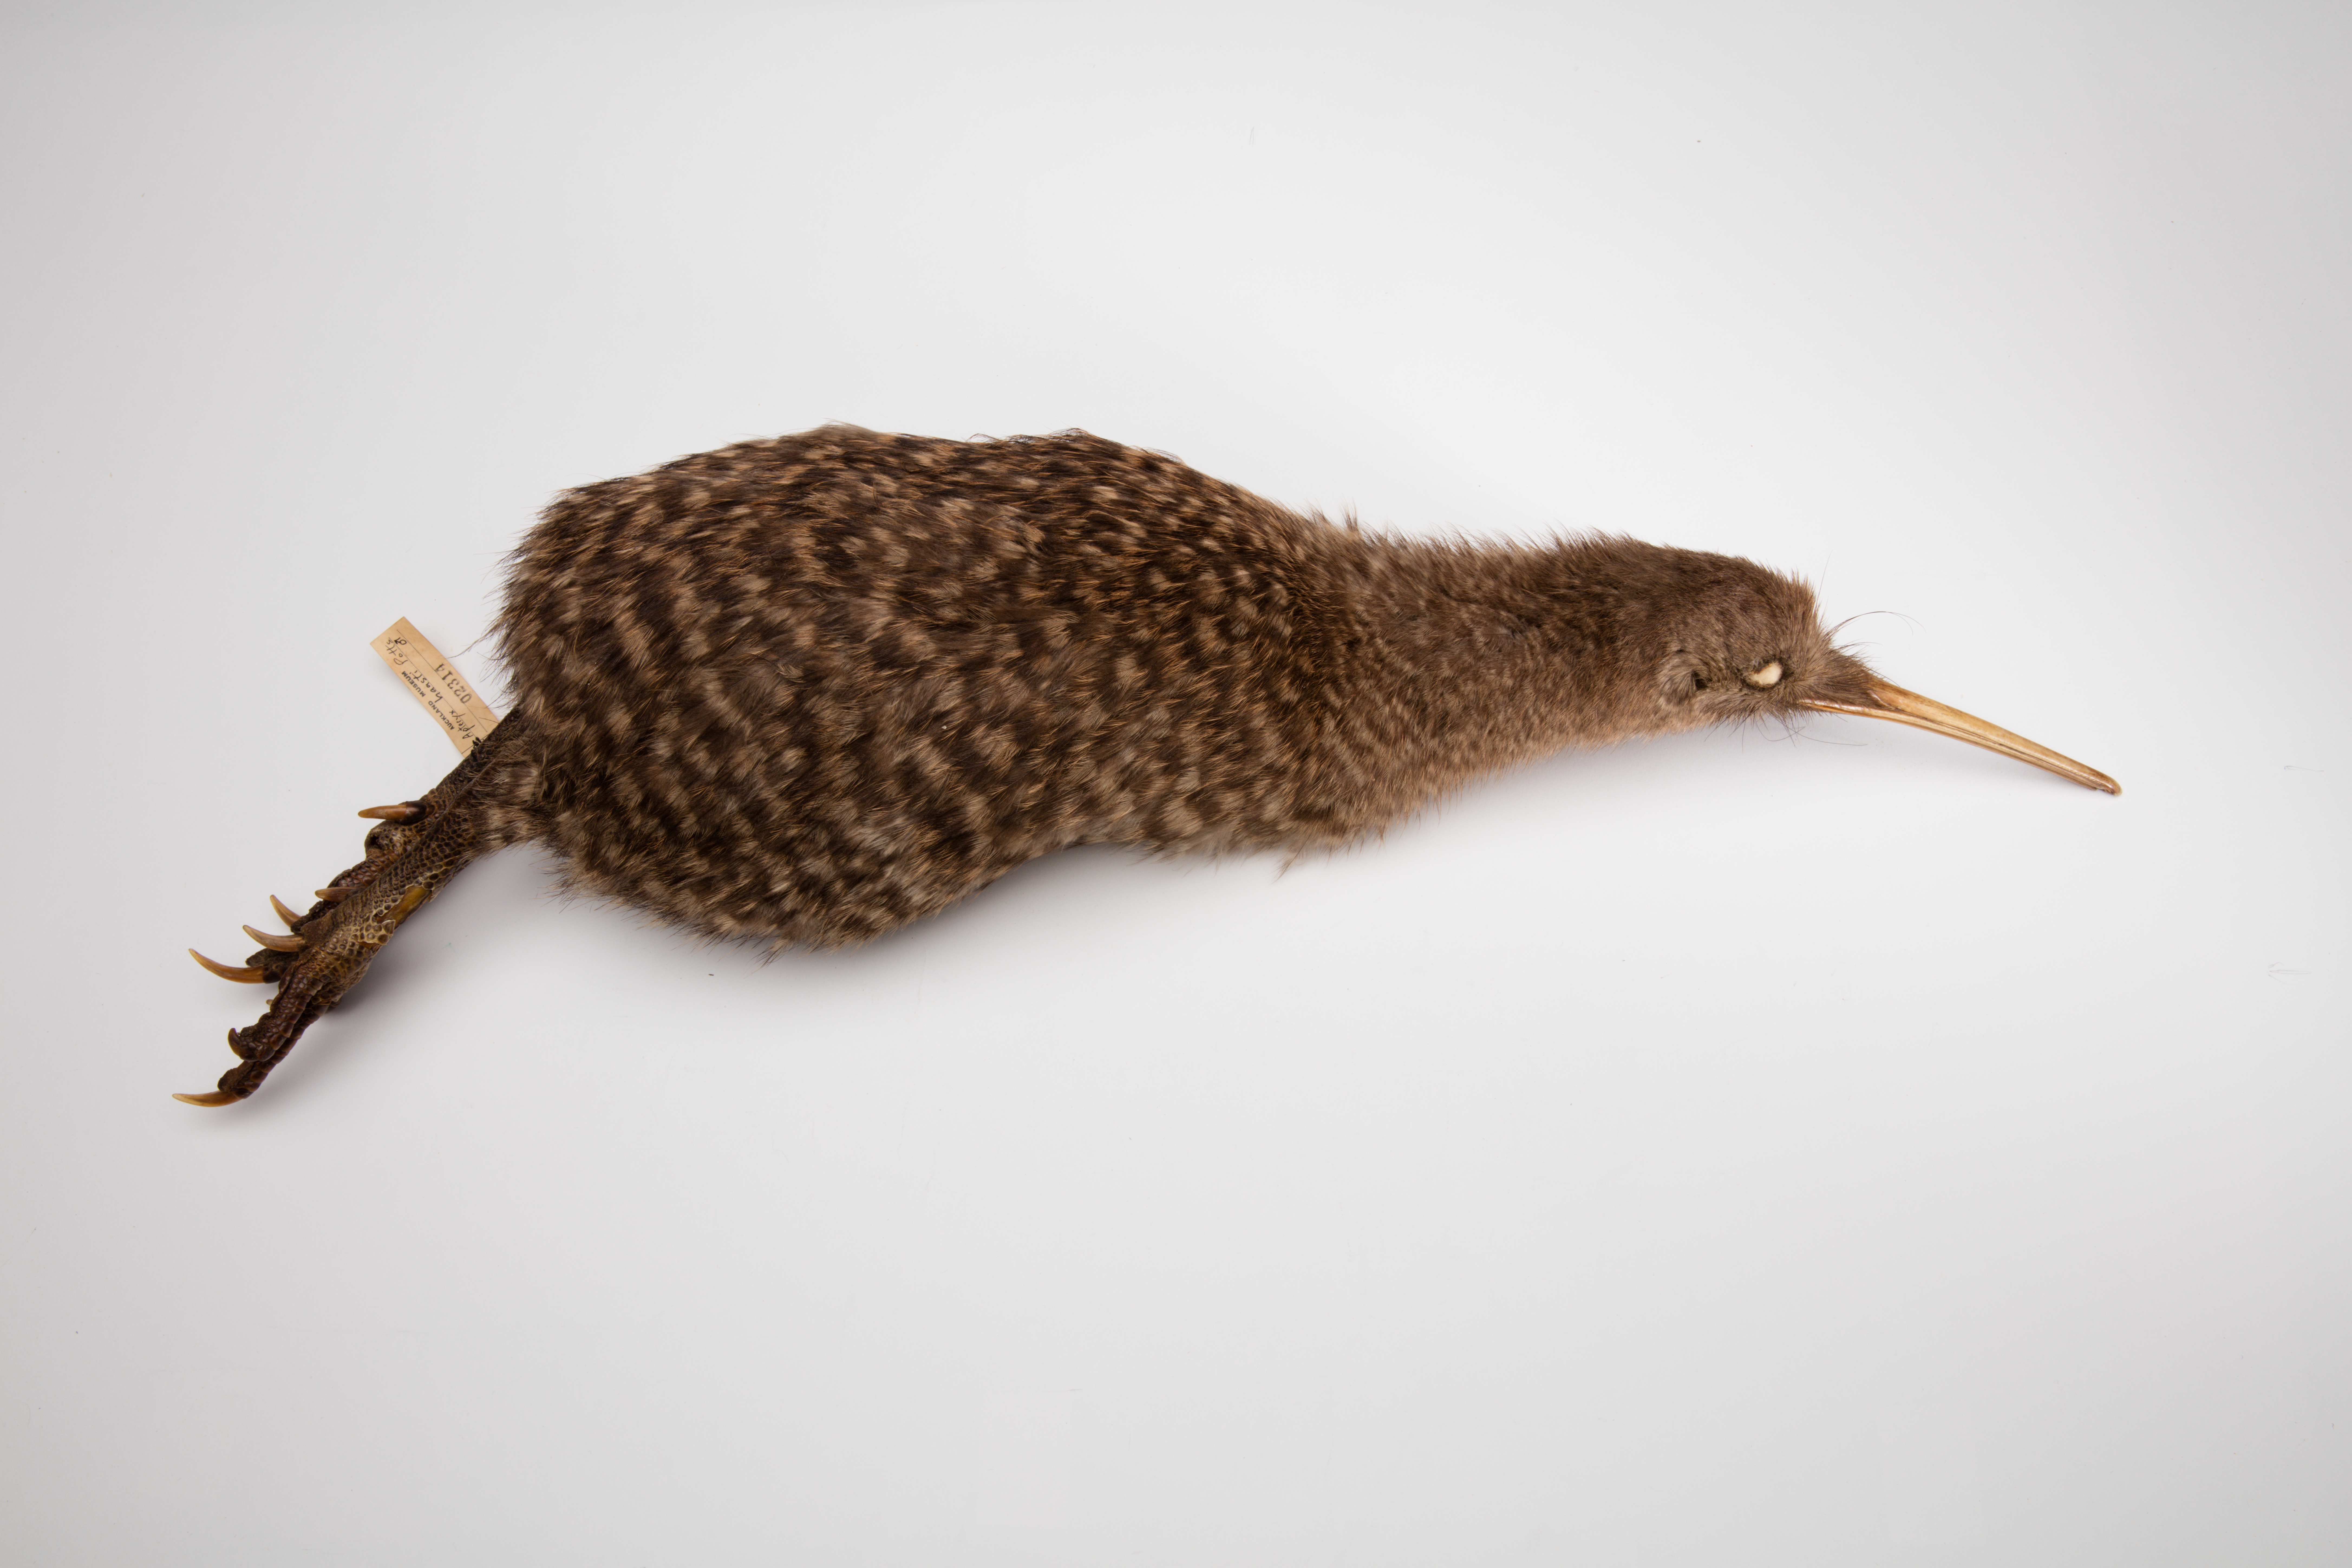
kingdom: Animalia
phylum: Chordata
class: Aves
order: Apterygiformes
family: Apterygidae
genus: Apteryx
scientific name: Apteryx
